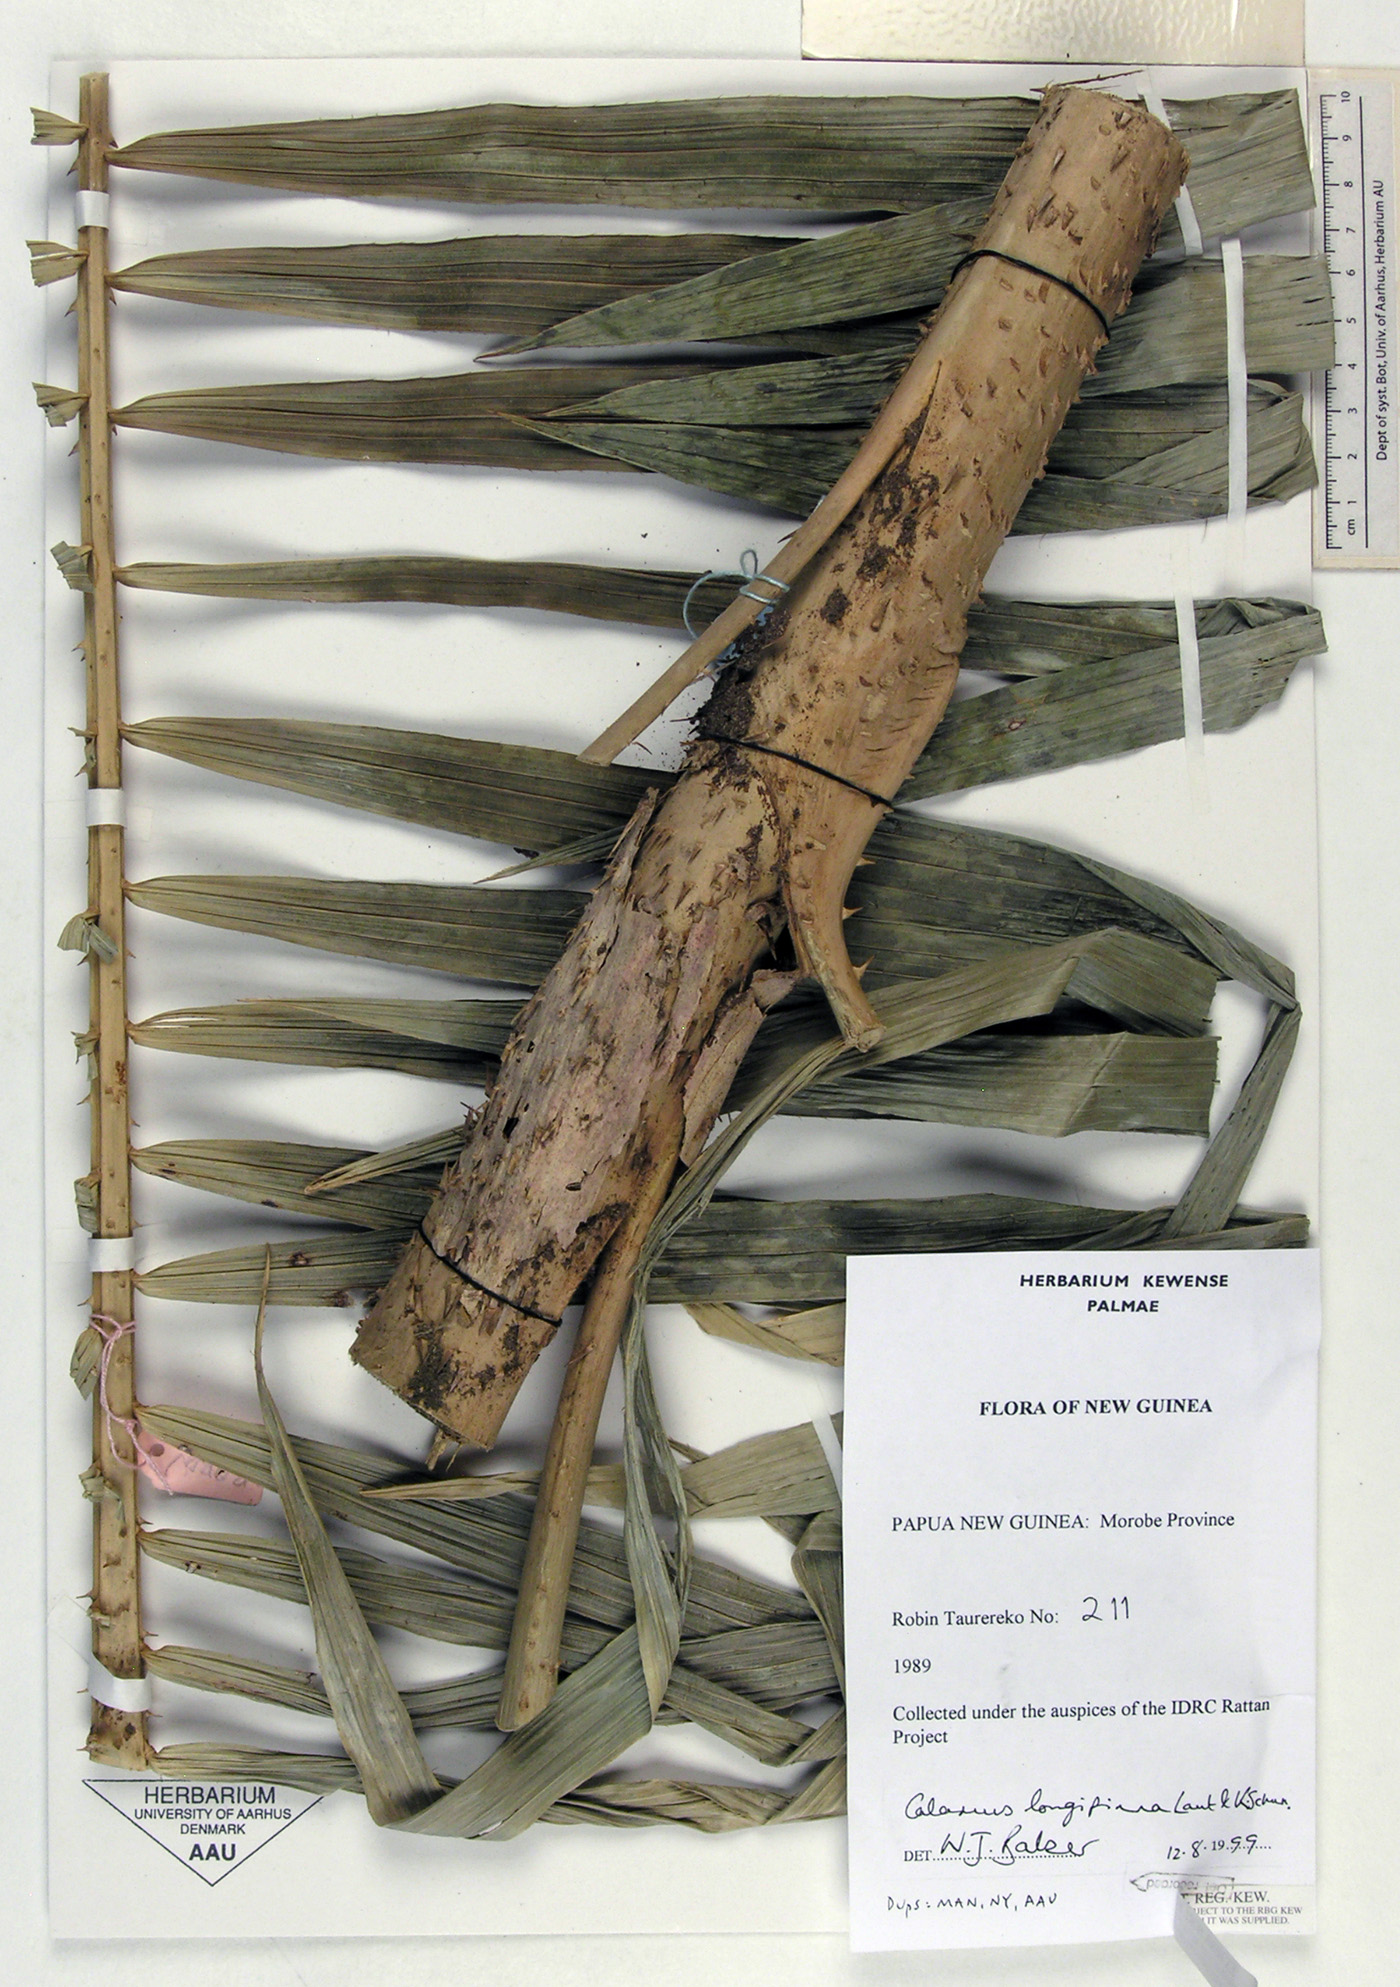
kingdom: Plantae
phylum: Tracheophyta
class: Liliopsida
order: Arecales
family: Arecaceae
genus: Calamus
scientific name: Calamus longipinna
